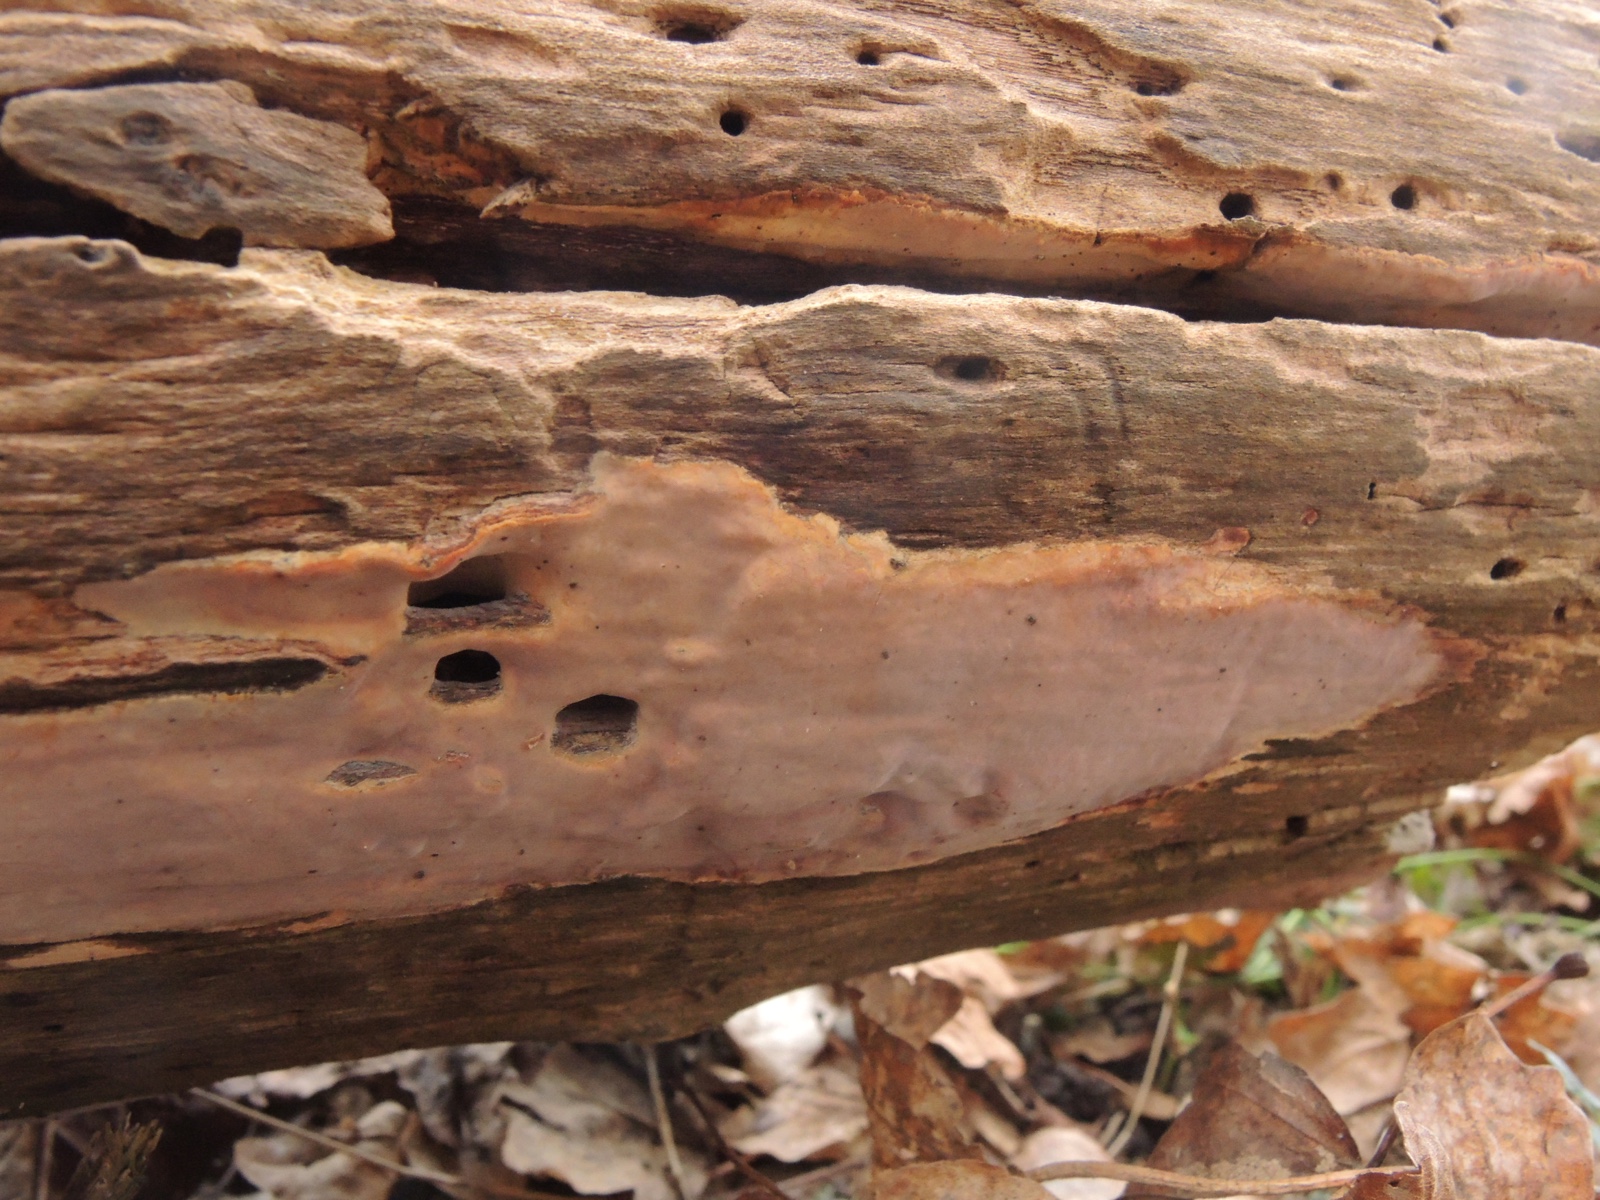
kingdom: Fungi
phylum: Basidiomycota
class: Agaricomycetes
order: Russulales
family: Peniophoraceae
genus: Scytinostroma
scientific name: Scytinostroma hemidichophyticum
